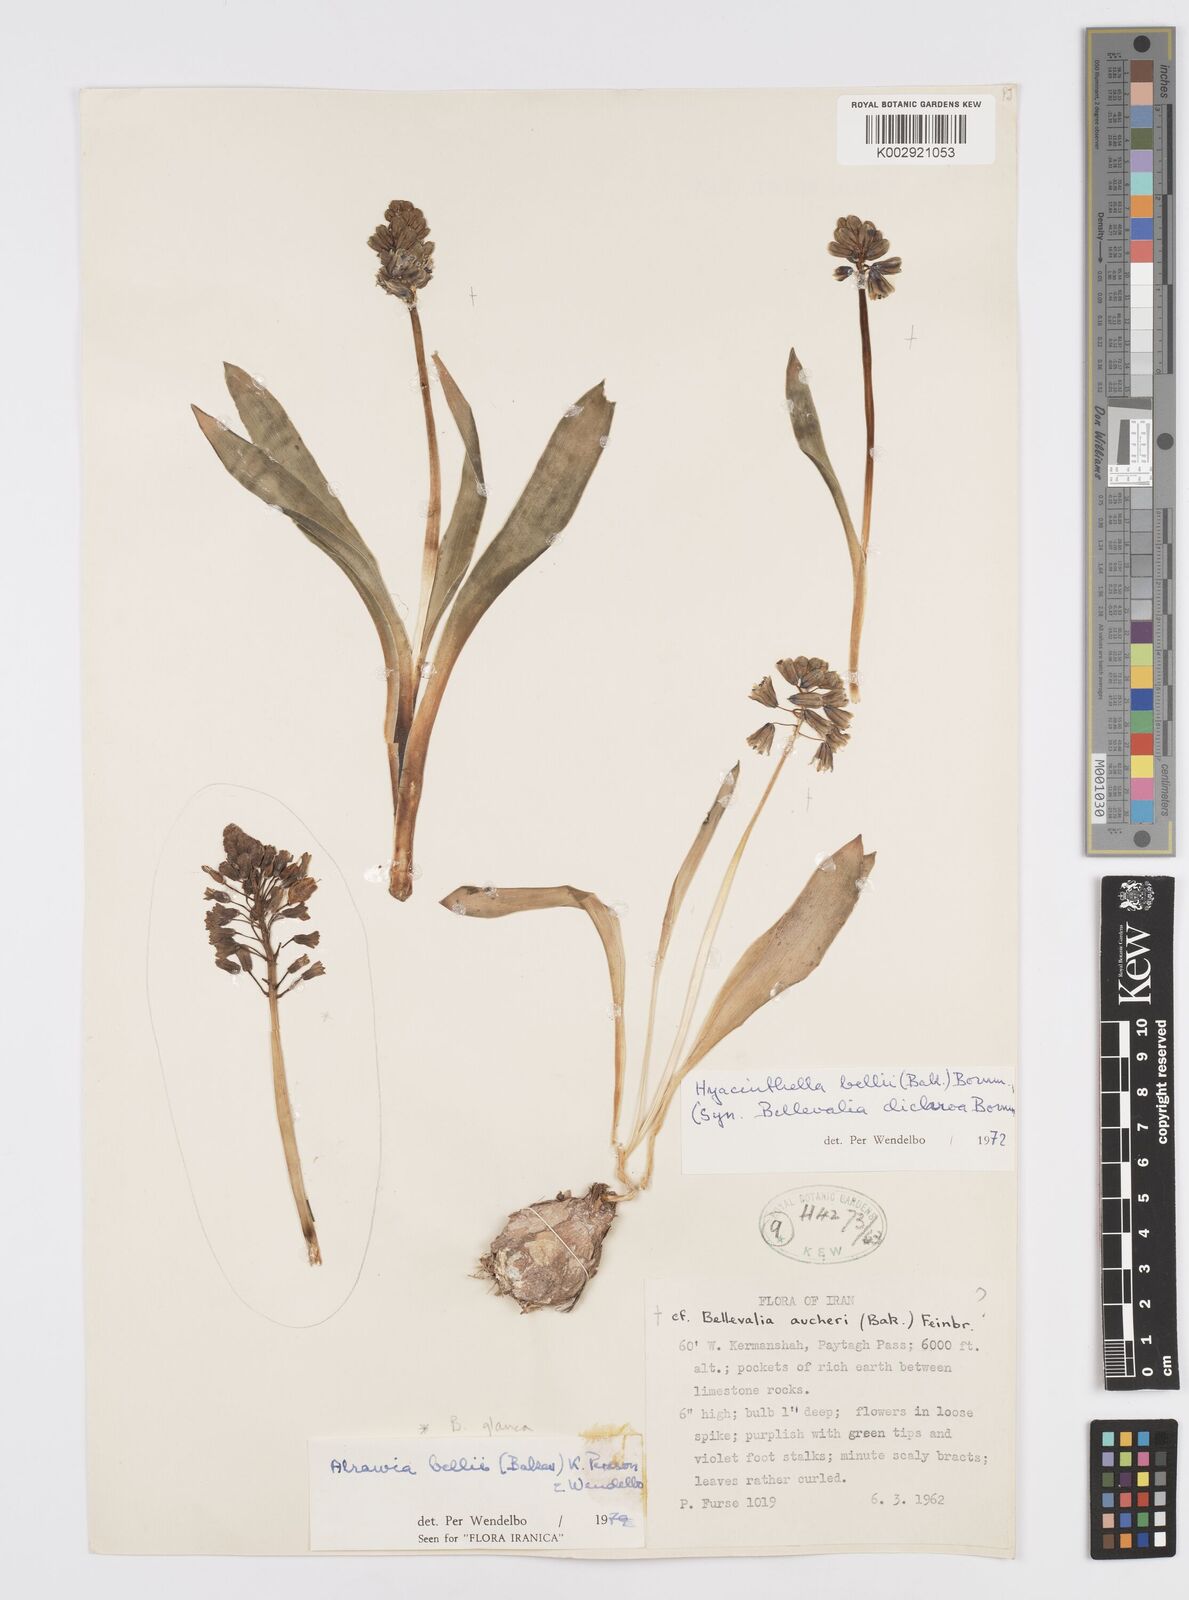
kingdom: Plantae
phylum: Tracheophyta
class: Liliopsida
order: Asparagales
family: Asparagaceae
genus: Alrawia
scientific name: Alrawia bellii
